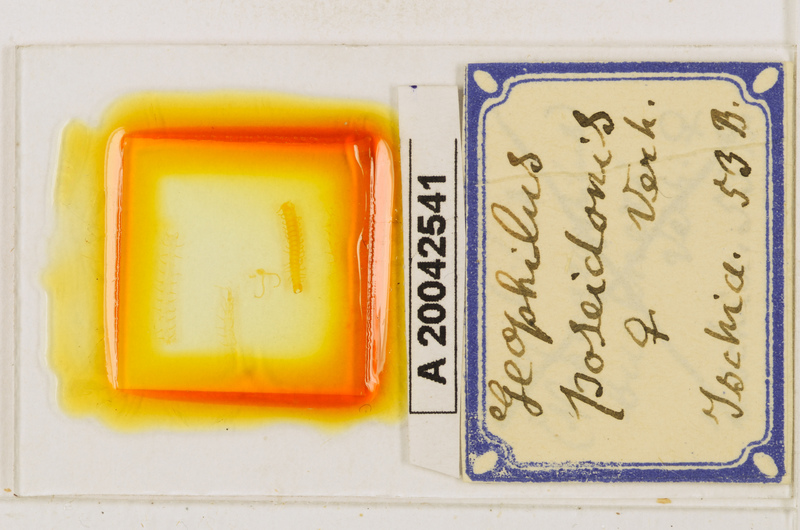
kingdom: Animalia
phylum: Arthropoda
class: Chilopoda
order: Geophilomorpha
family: Geophilidae
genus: Tuoba
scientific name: Tuoba poseidonis
